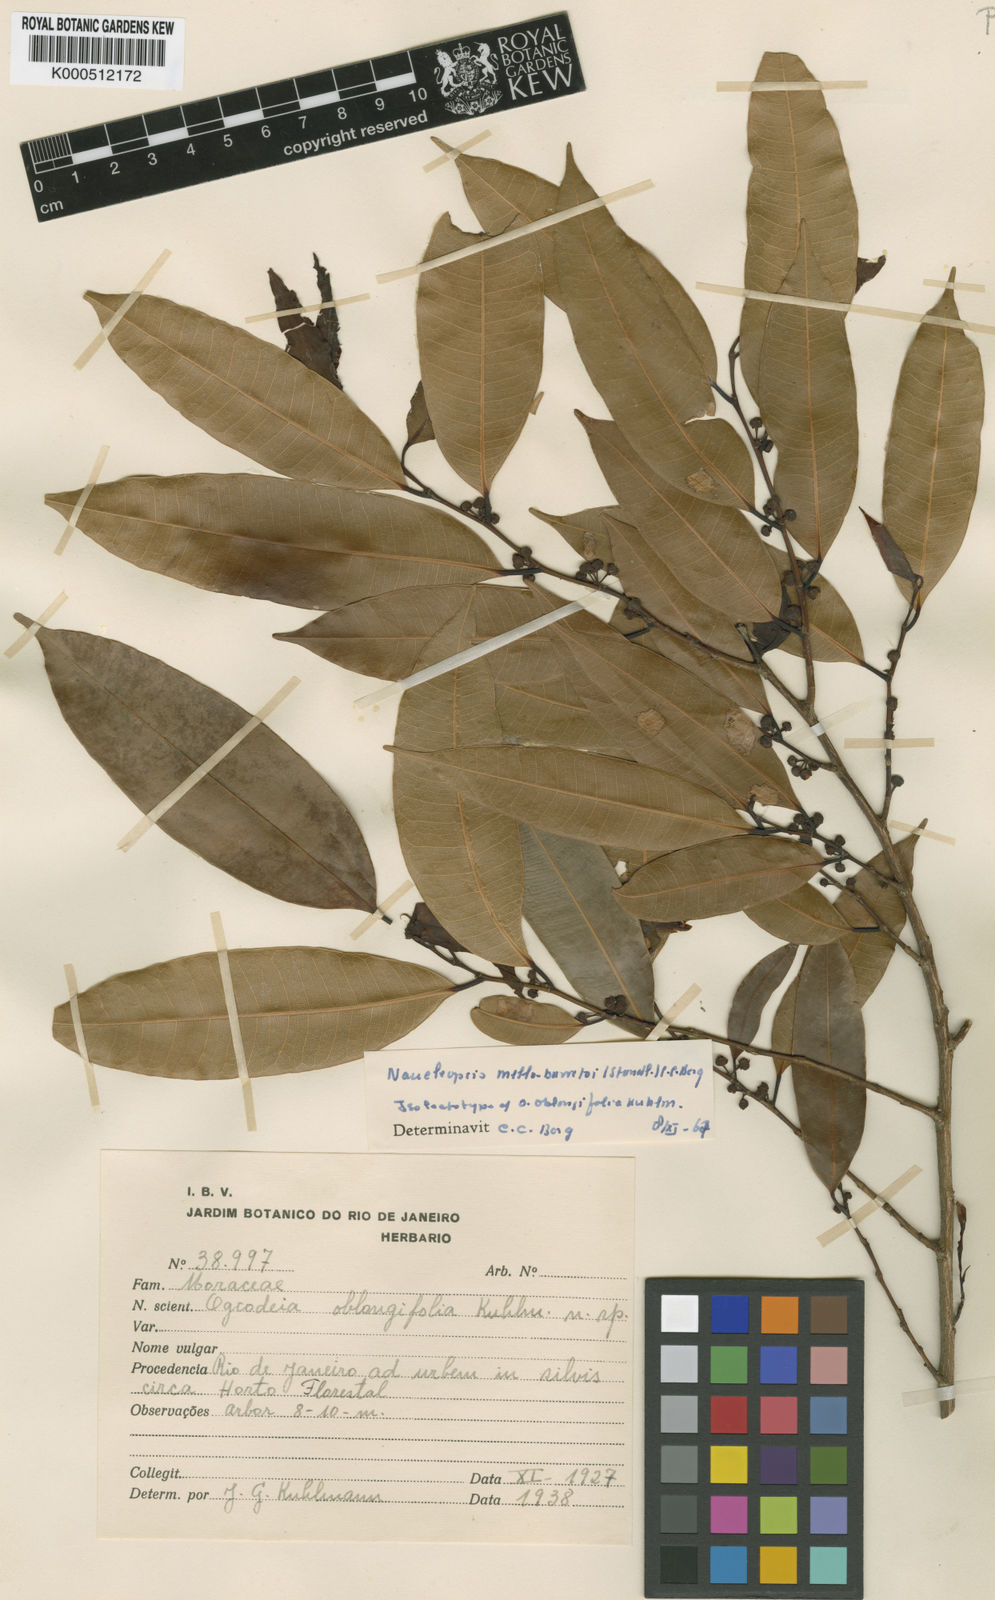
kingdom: Plantae
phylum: Tracheophyta
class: Magnoliopsida
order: Rosales
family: Moraceae
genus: Naucleopsis
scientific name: Naucleopsis oblongifolia
